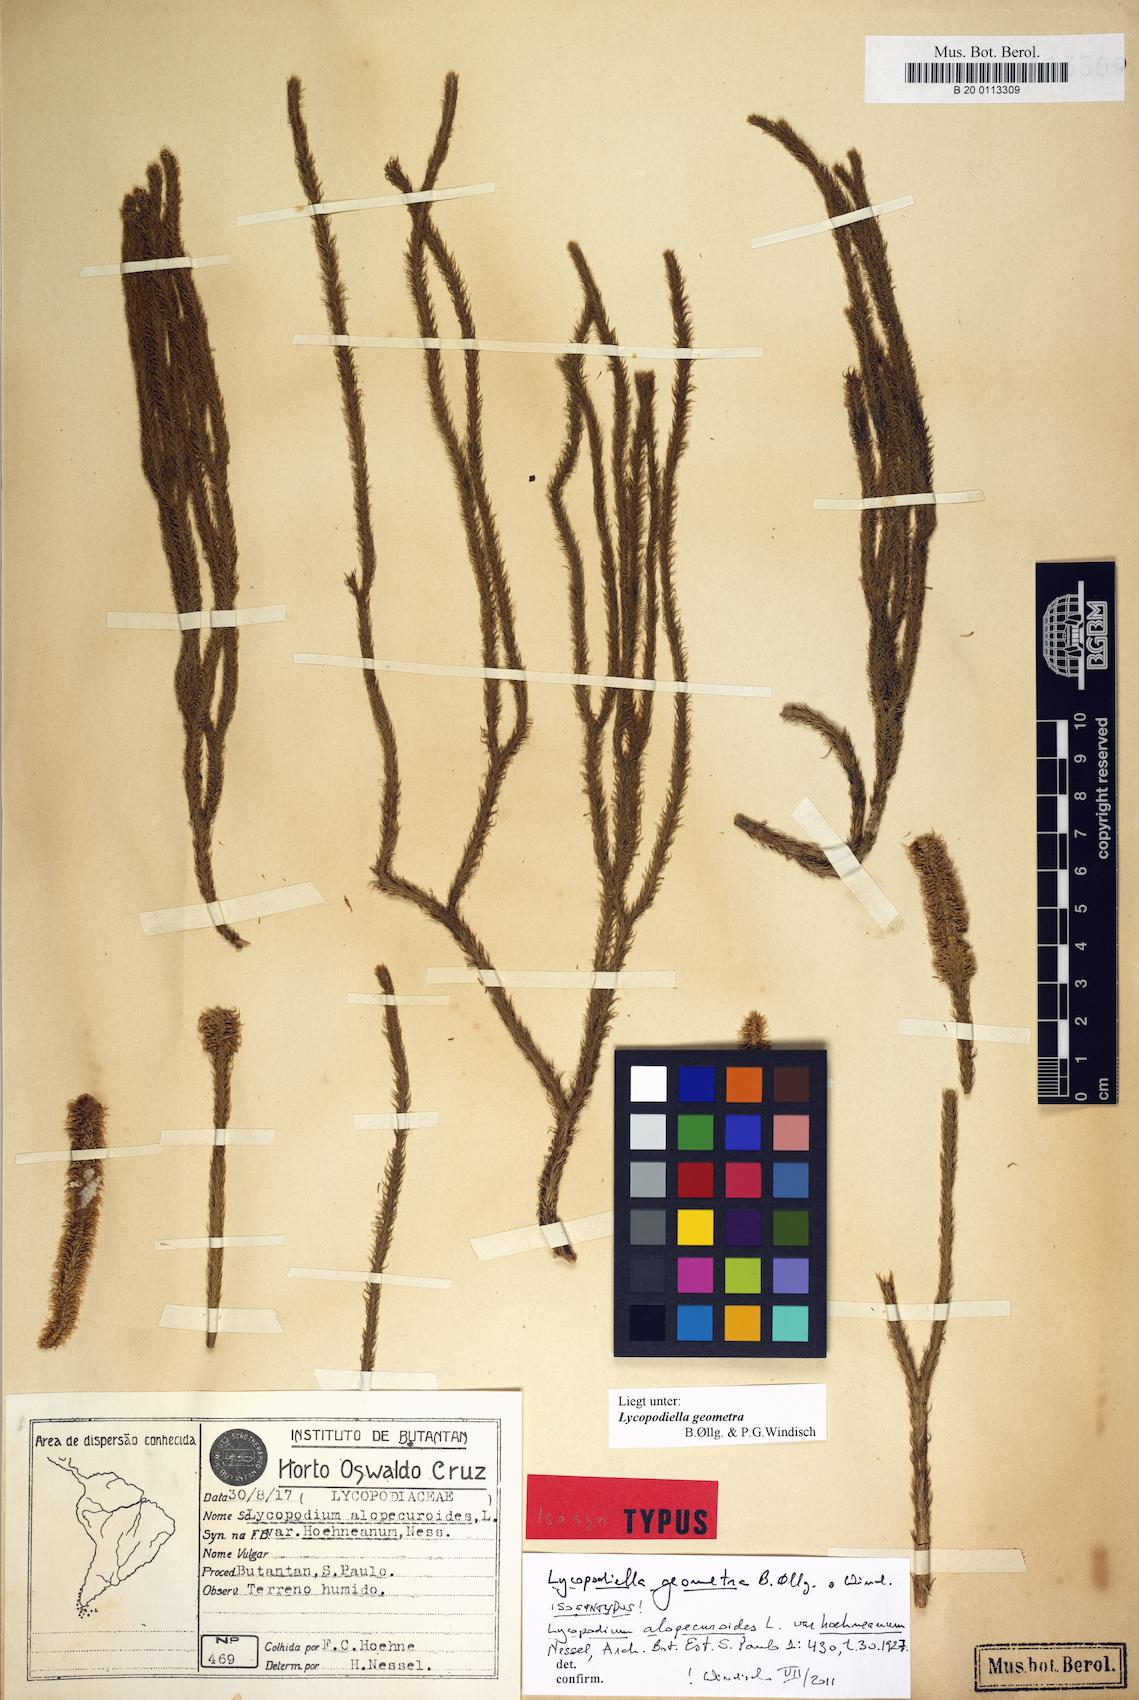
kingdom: Plantae
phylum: Tracheophyta
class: Lycopodiopsida
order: Lycopodiales
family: Lycopodiaceae
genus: Lycopodiella
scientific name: Lycopodiella geometra
